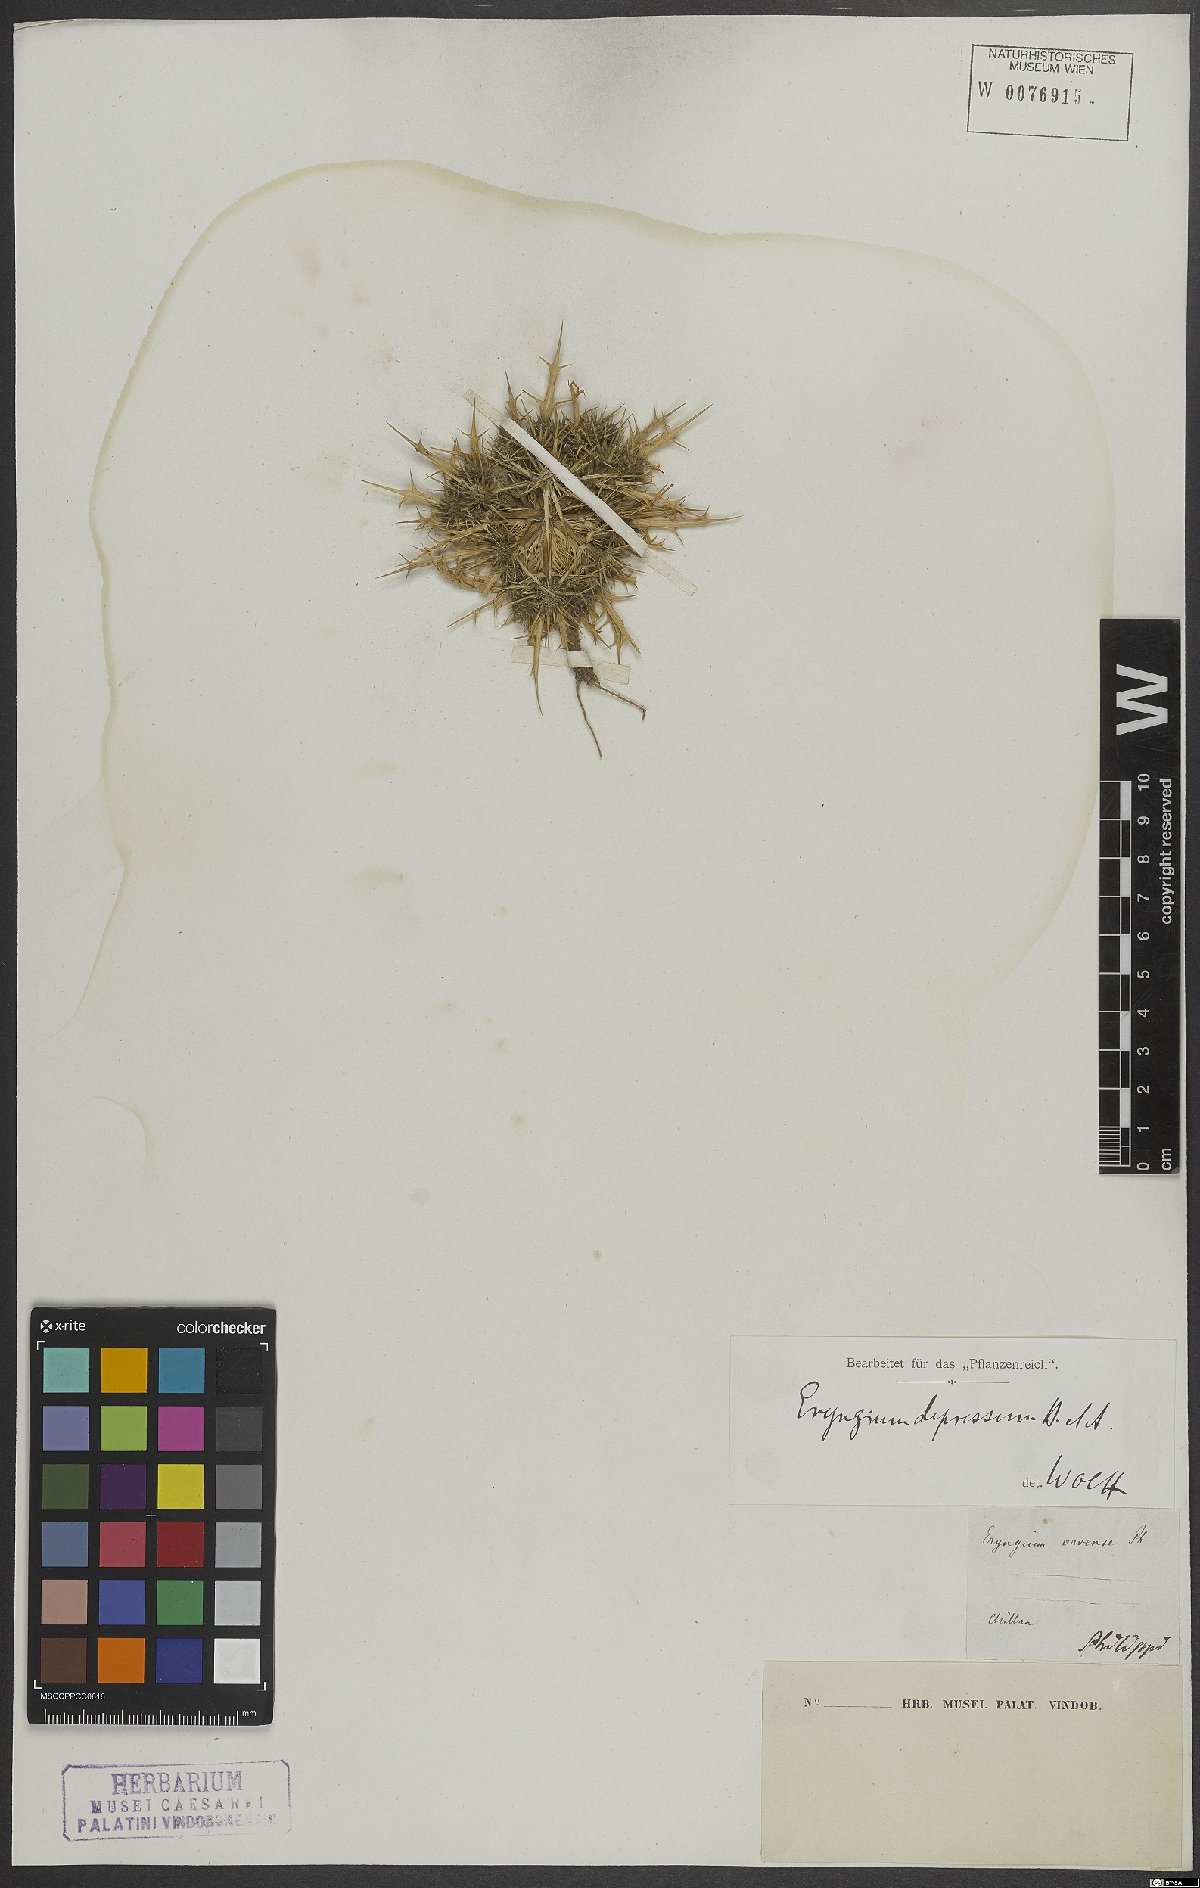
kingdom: Plantae
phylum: Tracheophyta
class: Magnoliopsida
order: Apiales
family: Apiaceae
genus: Eryngium
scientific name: Eryngium depressum
